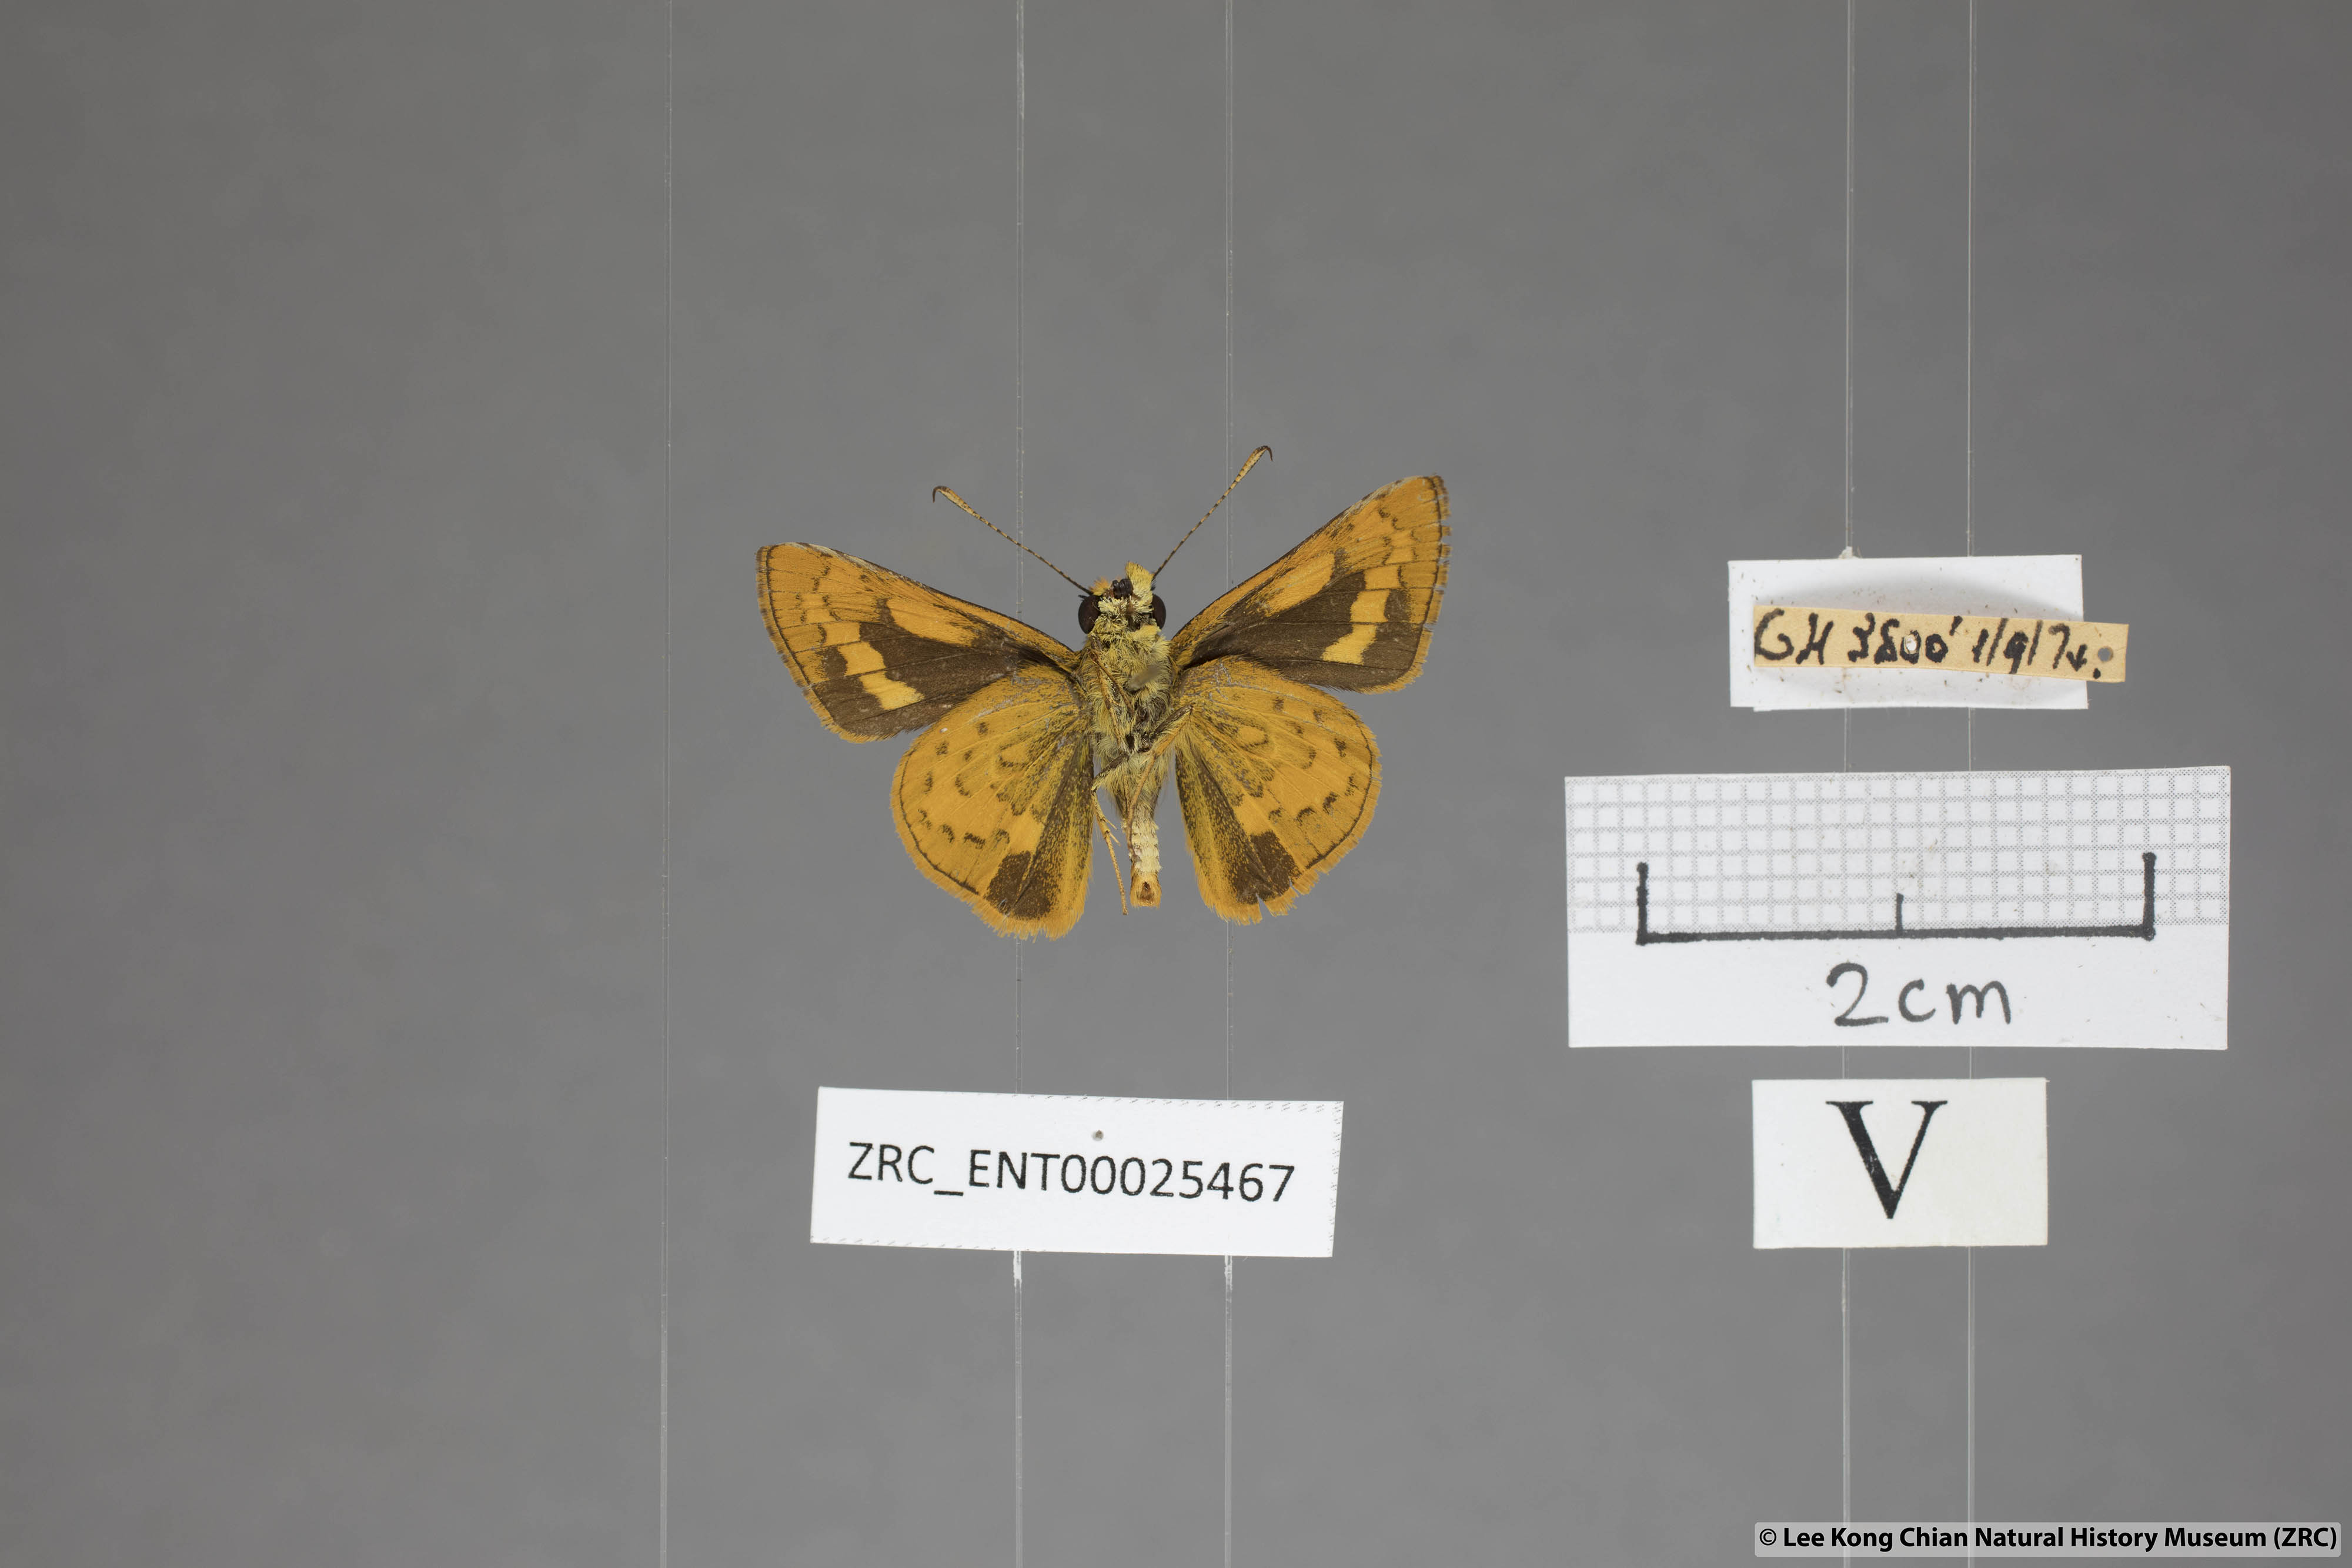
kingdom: Animalia
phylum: Arthropoda
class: Insecta
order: Lepidoptera
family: Hesperiidae
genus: Potanthus
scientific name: Potanthus rectifasciata
